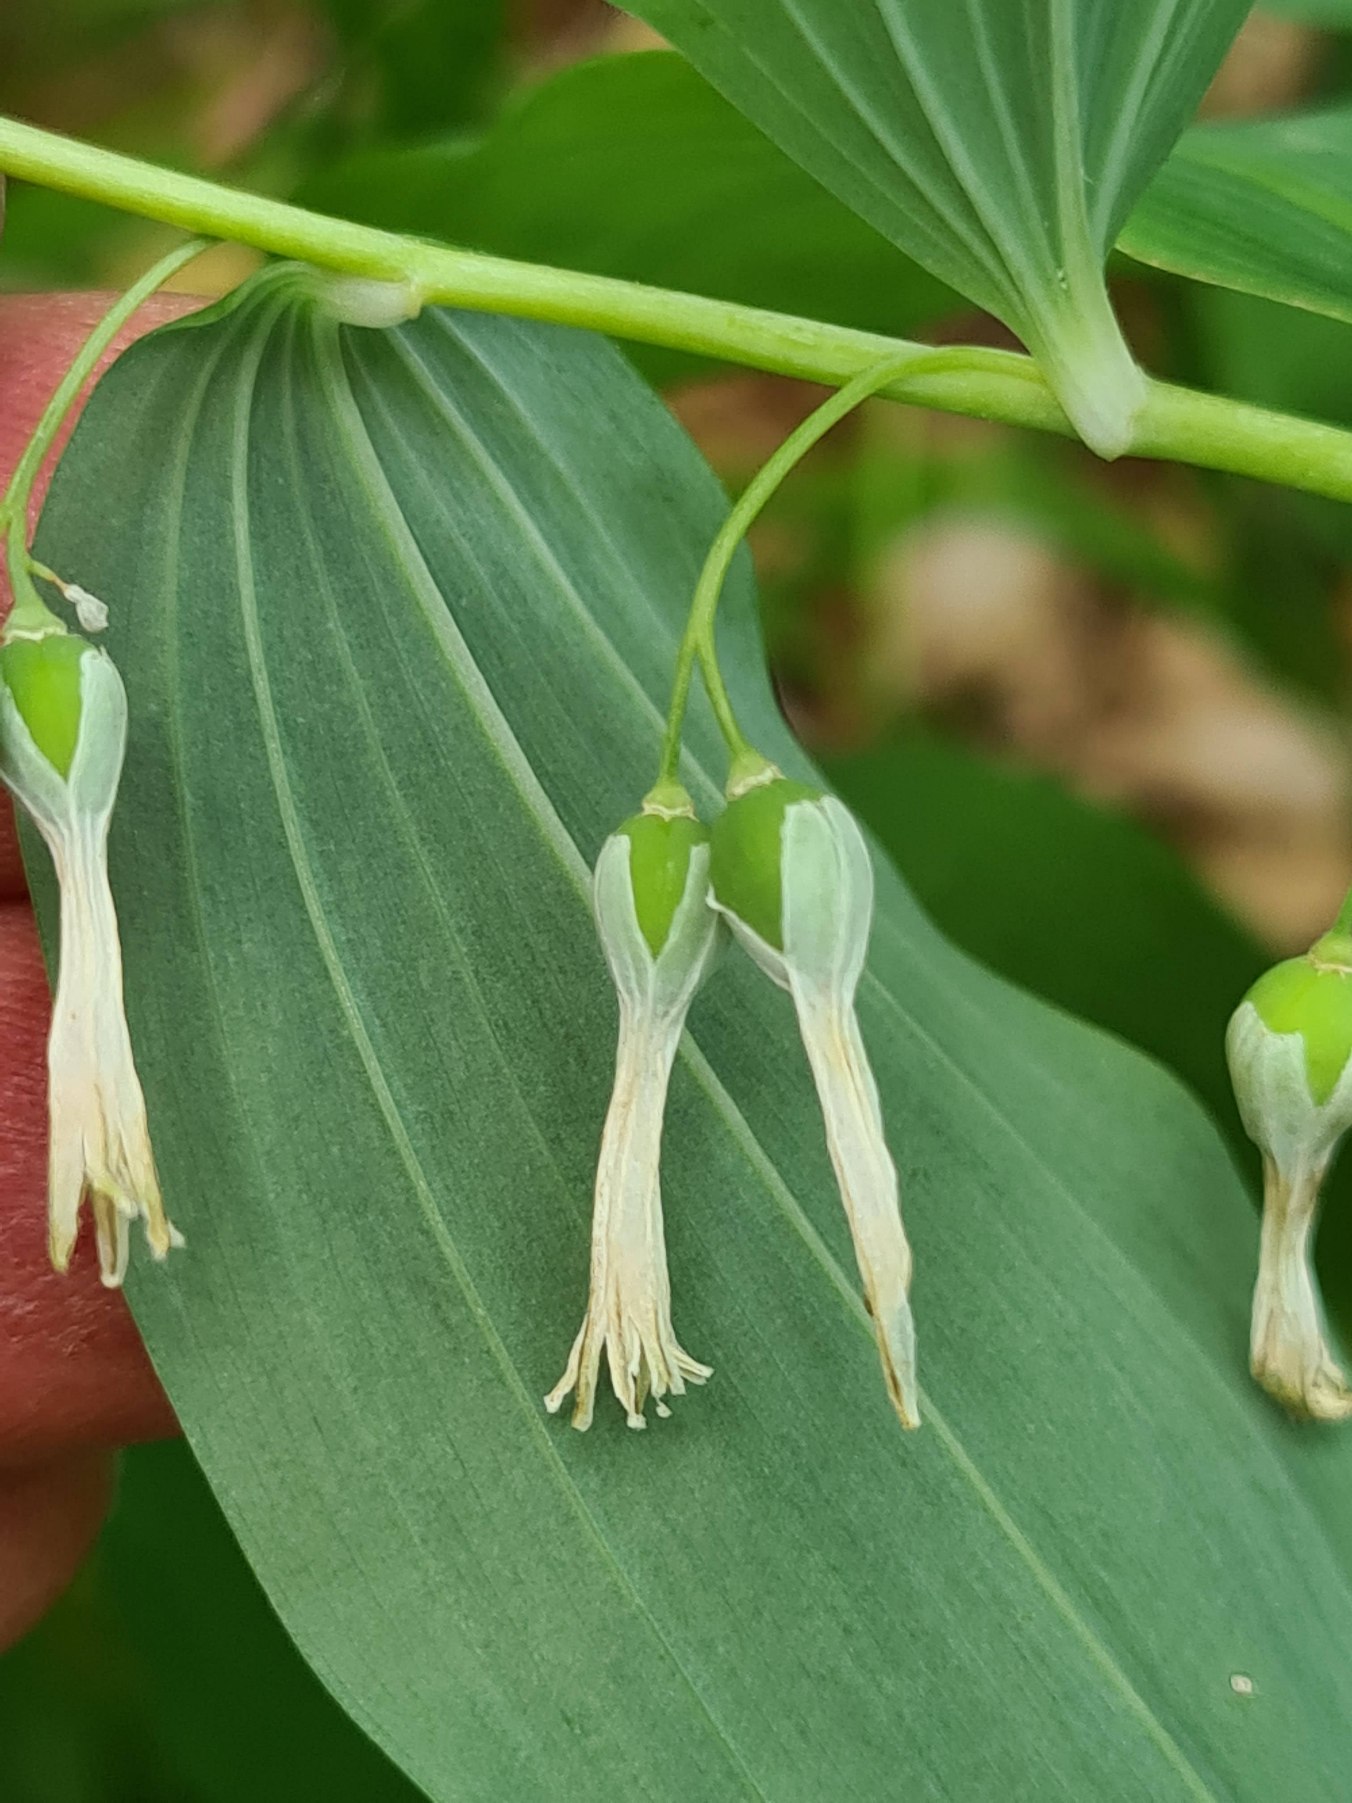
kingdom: Plantae
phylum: Tracheophyta
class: Liliopsida
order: Asparagales
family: Asparagaceae
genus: Polygonatum
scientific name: Polygonatum multiflorum
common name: Stor konval
